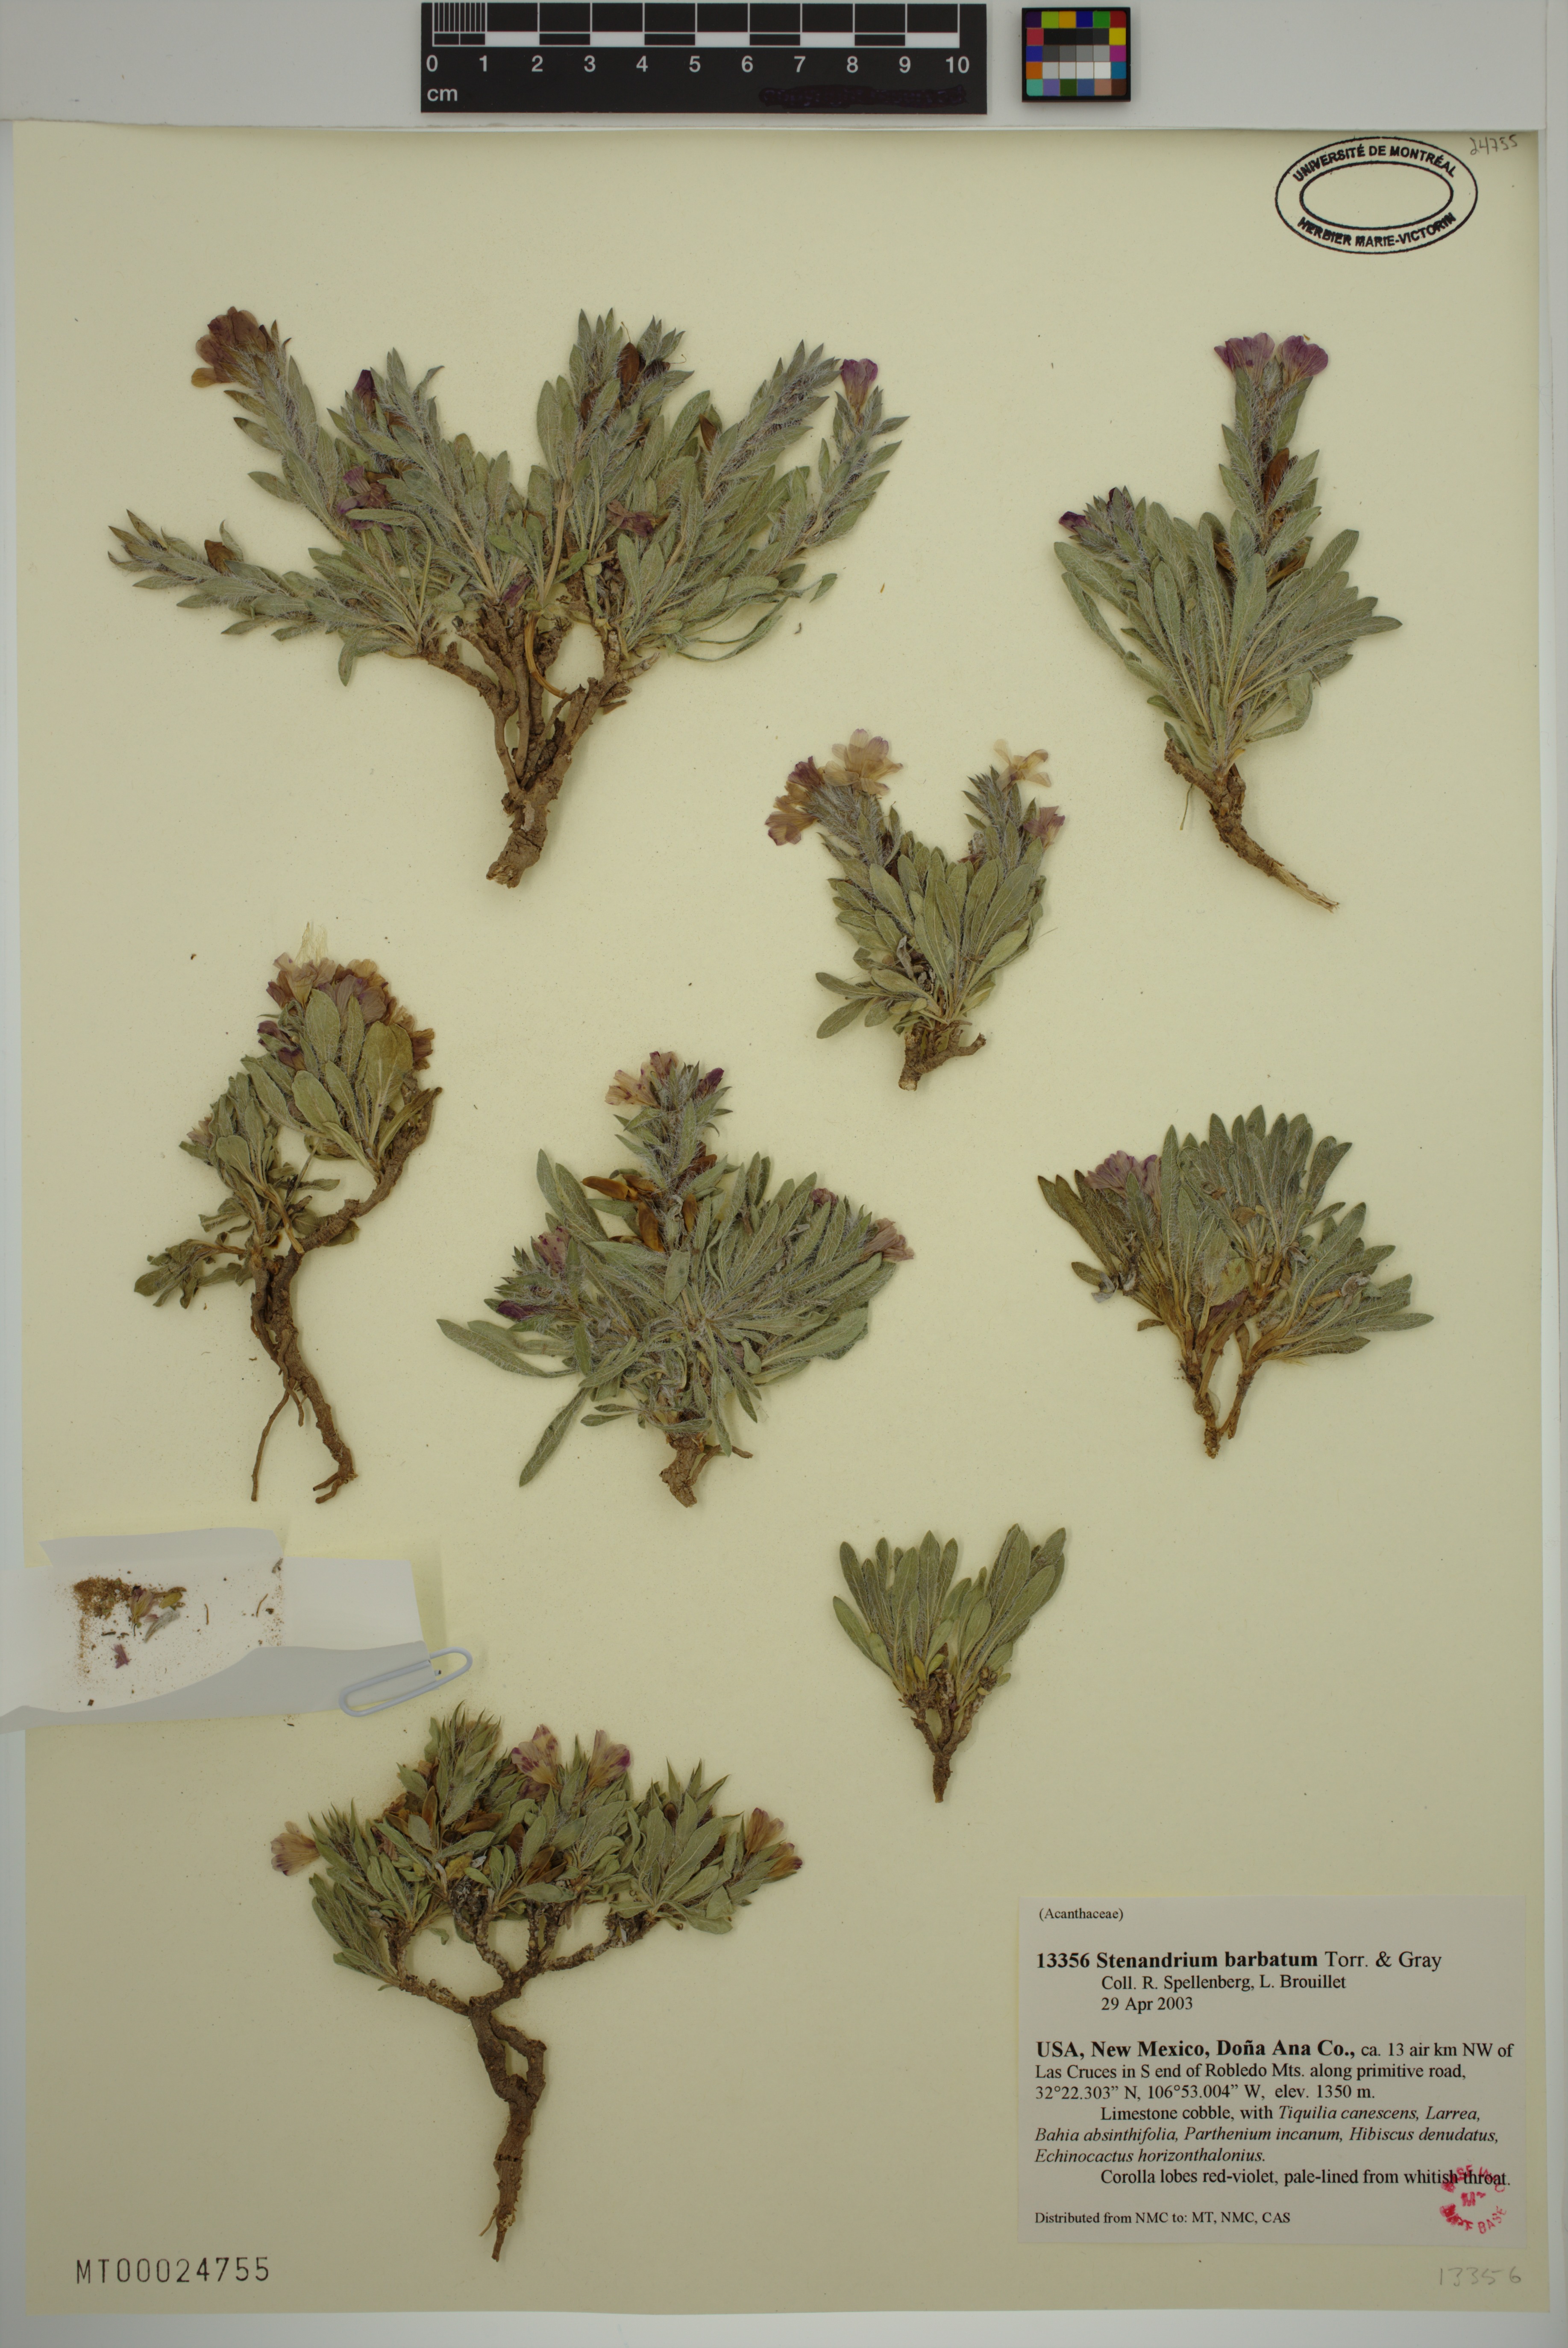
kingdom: Plantae
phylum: Tracheophyta
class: Magnoliopsida
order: Lamiales
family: Acanthaceae
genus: Stenandrium
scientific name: Stenandrium barbatum
